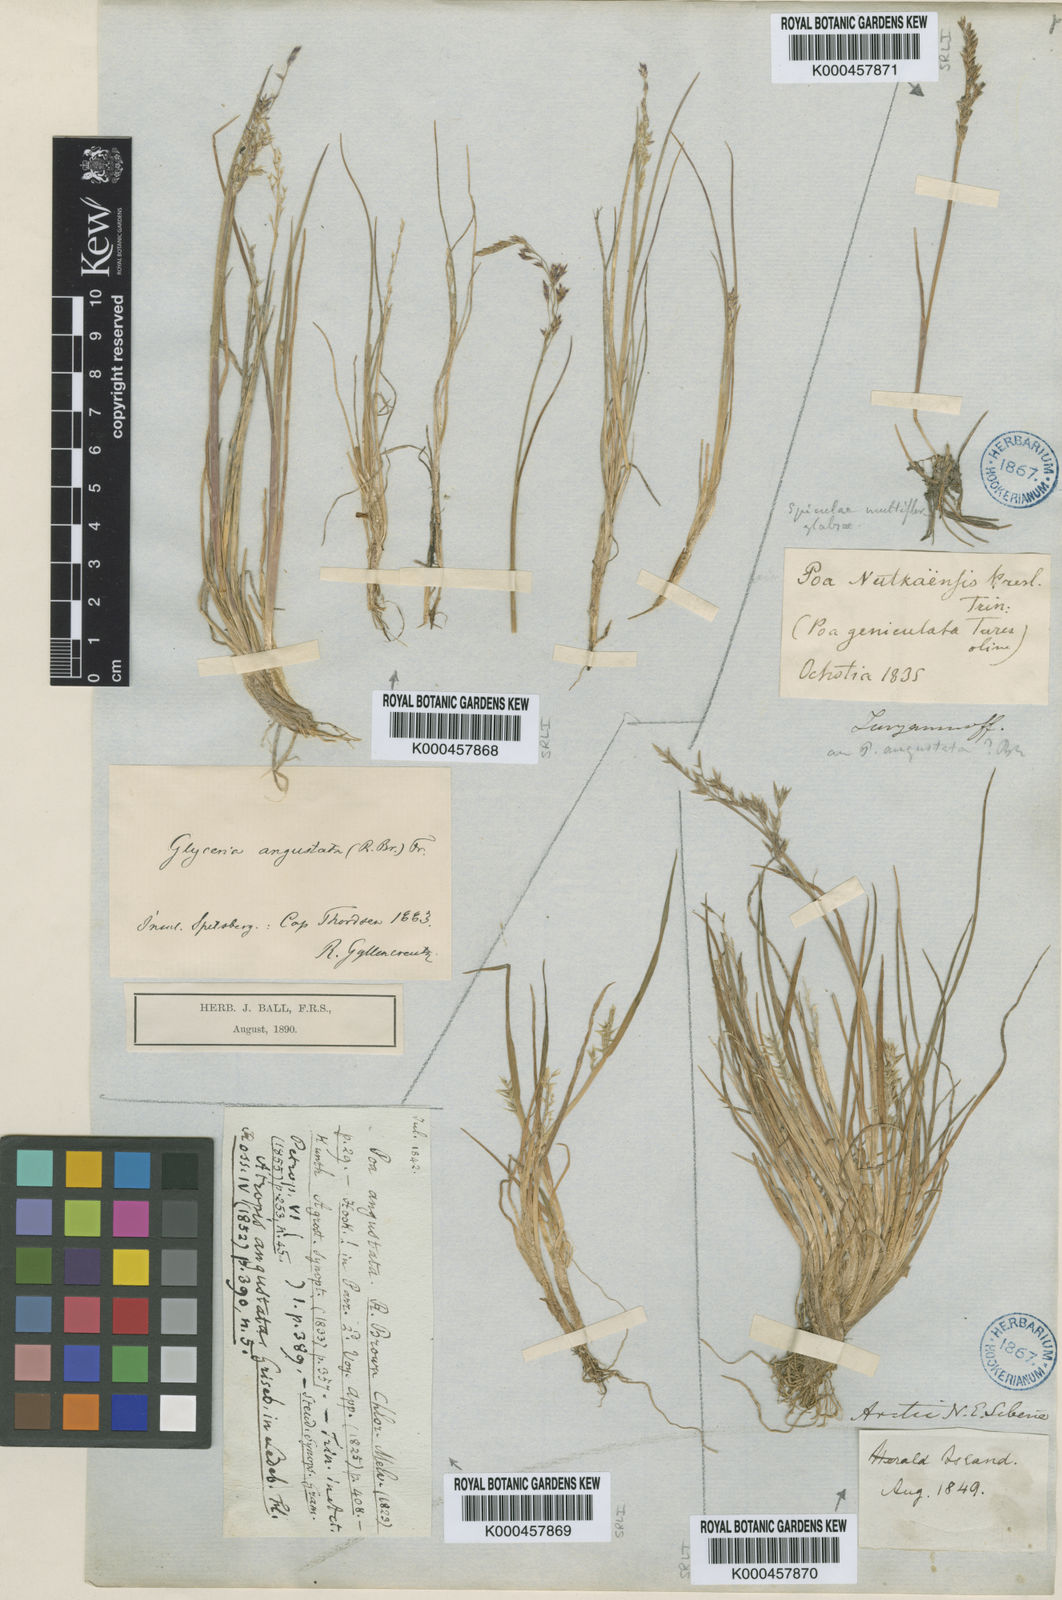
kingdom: Plantae
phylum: Tracheophyta
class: Liliopsida
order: Poales
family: Poaceae
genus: Puccinellia
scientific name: Puccinellia angustata
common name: Narrow alkaligrass
